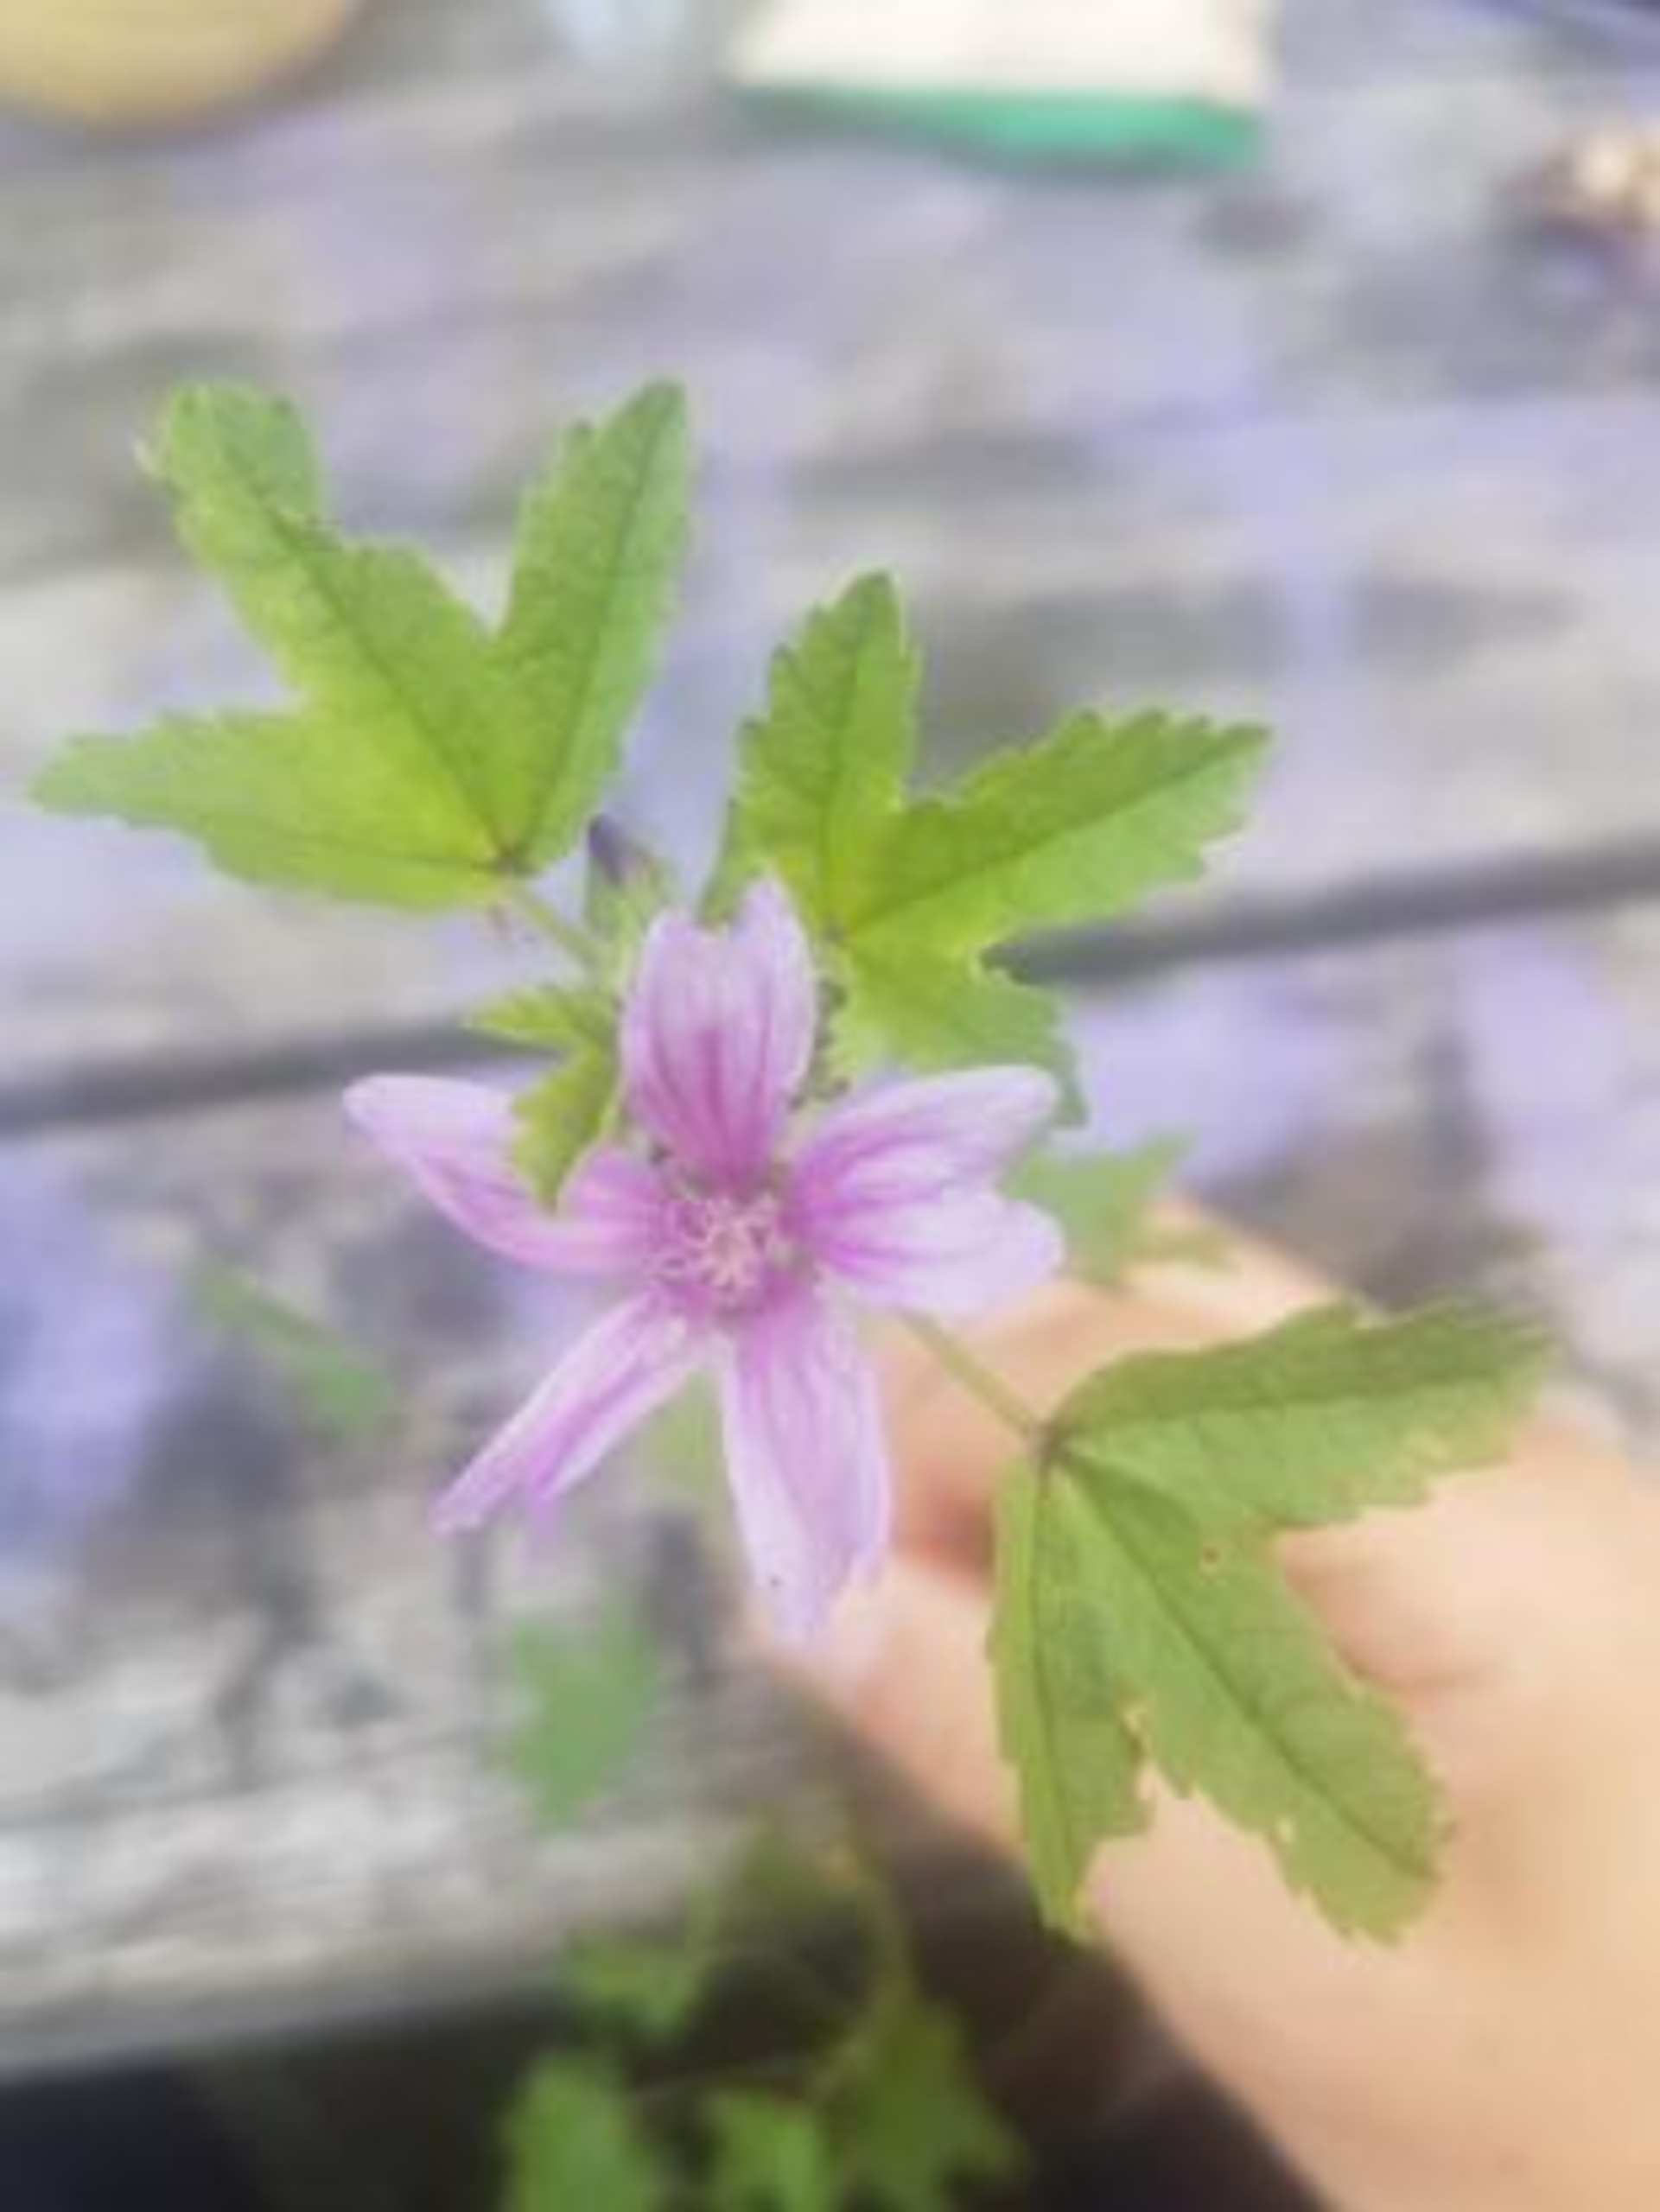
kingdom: Plantae
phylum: Tracheophyta
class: Magnoliopsida
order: Malvales
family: Malvaceae
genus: Malva
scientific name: Malva sylvestris
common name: Almindelig katost
